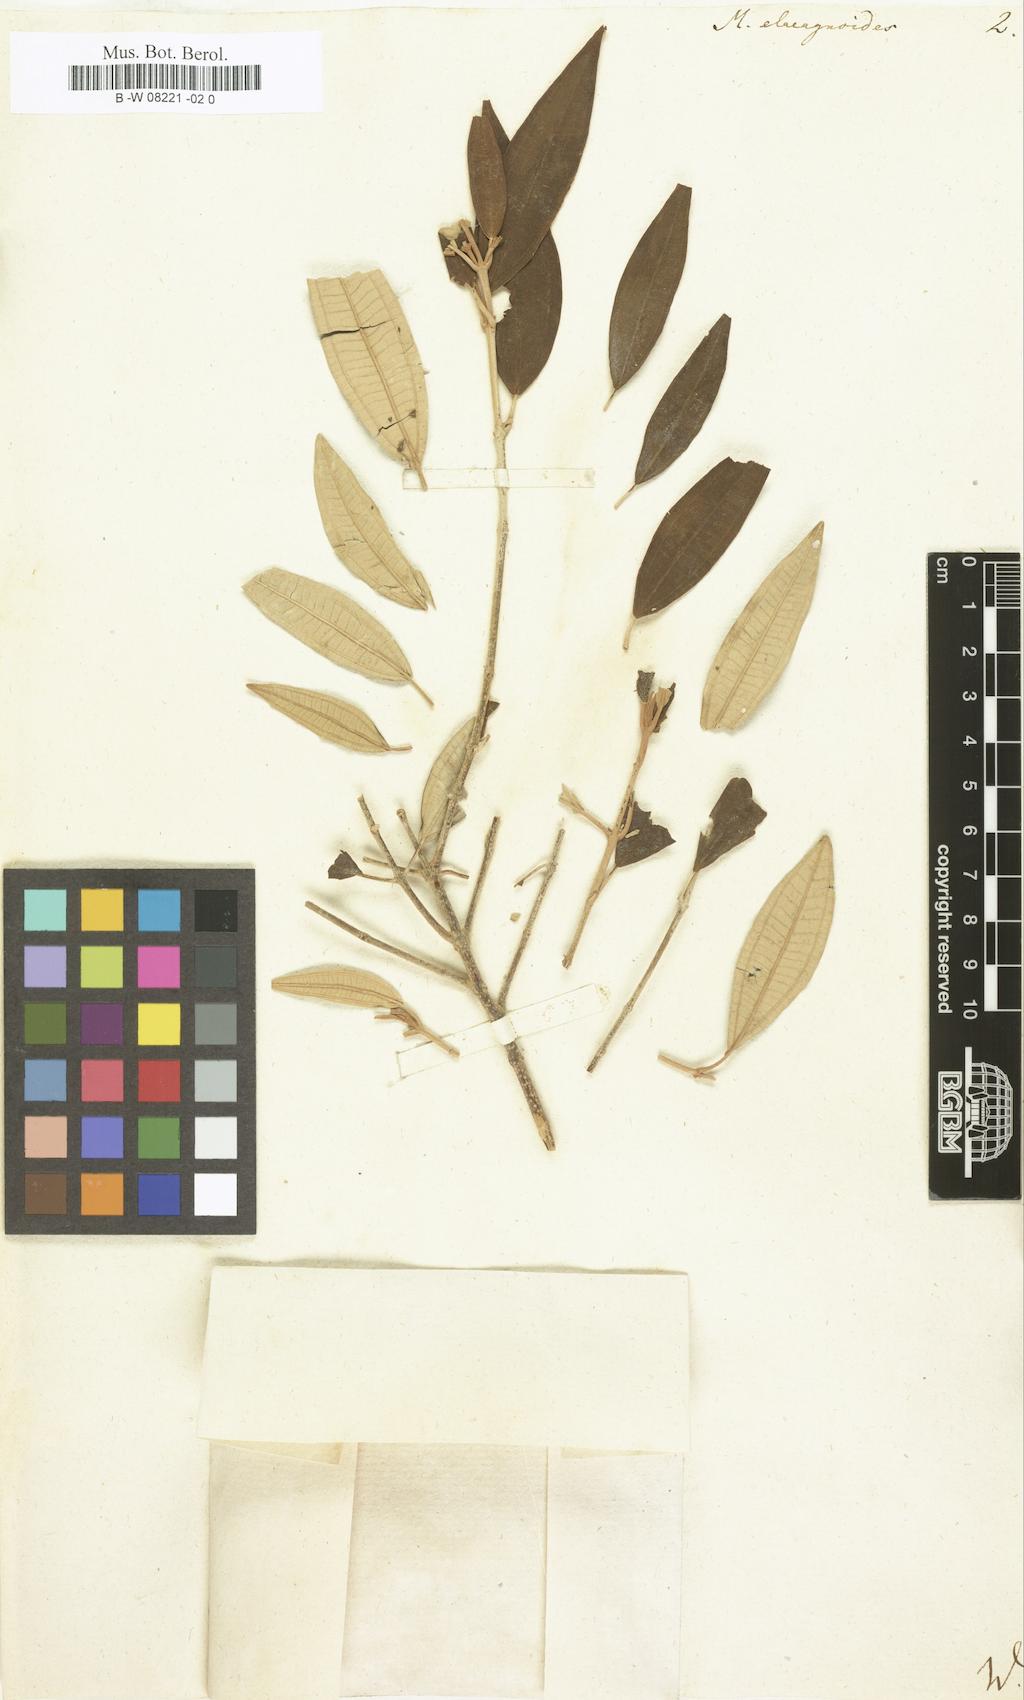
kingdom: Plantae
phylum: Tracheophyta
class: Magnoliopsida
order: Myrtales
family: Melastomataceae
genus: Melastoma
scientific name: Melastoma elaeagnoides
